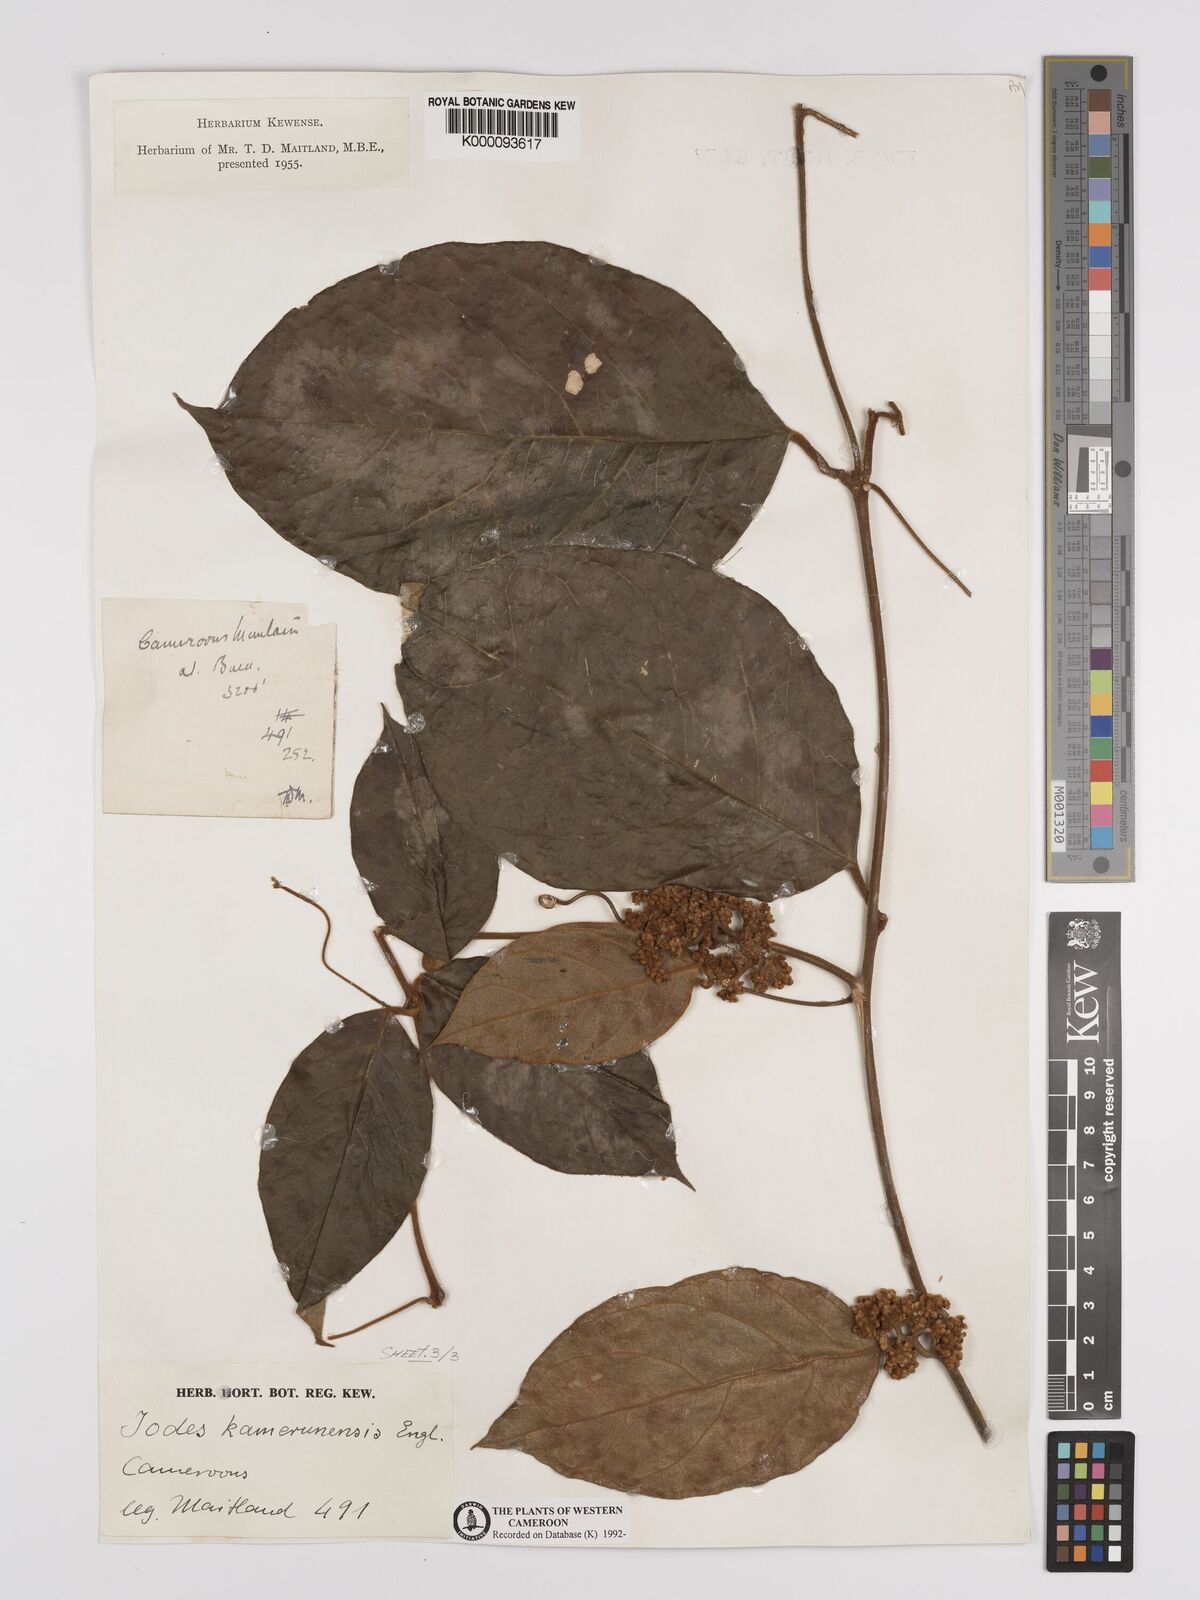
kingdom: Plantae
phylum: Tracheophyta
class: Magnoliopsida
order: Icacinales
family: Icacinaceae
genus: Iodes
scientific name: Iodes kamerunensis
